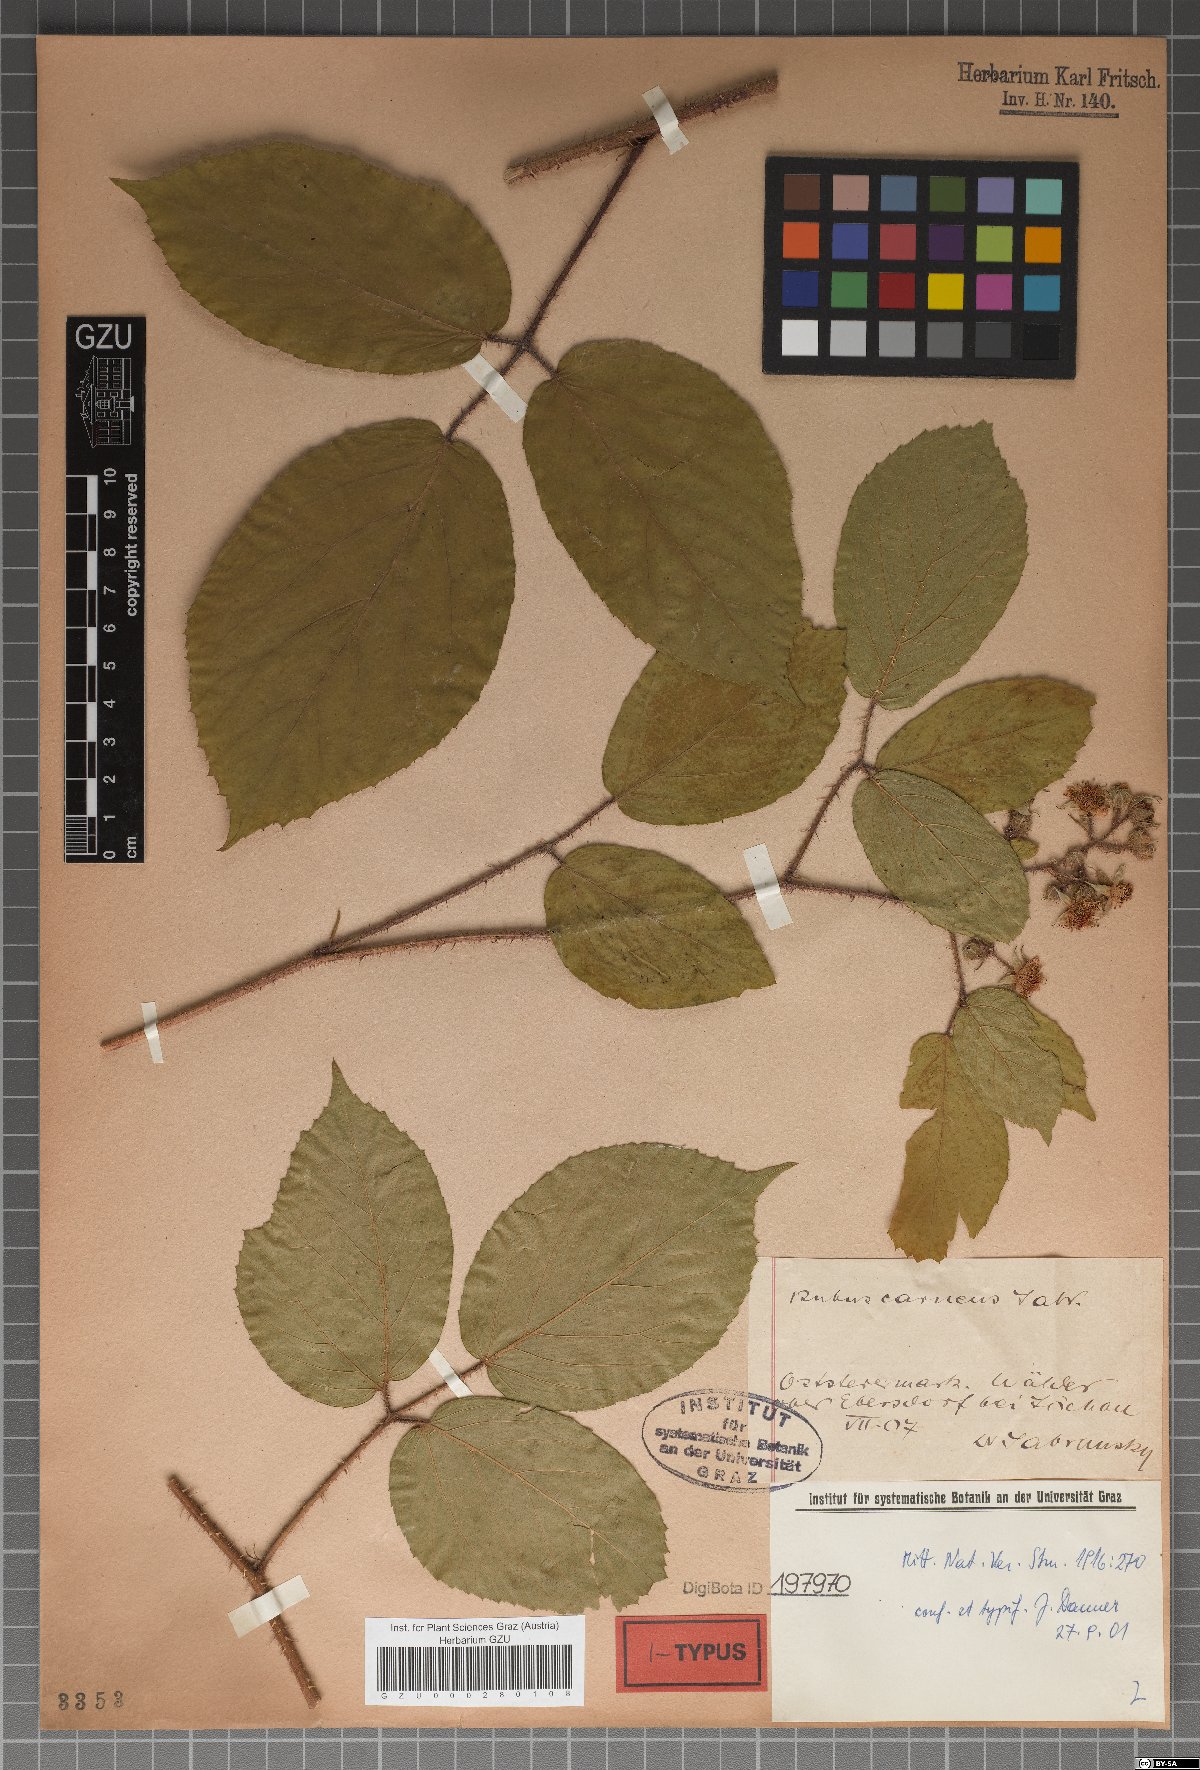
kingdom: Plantae
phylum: Tracheophyta
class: Magnoliopsida
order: Rosales
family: Rosaceae
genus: Rubus
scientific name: Rubus carneus
